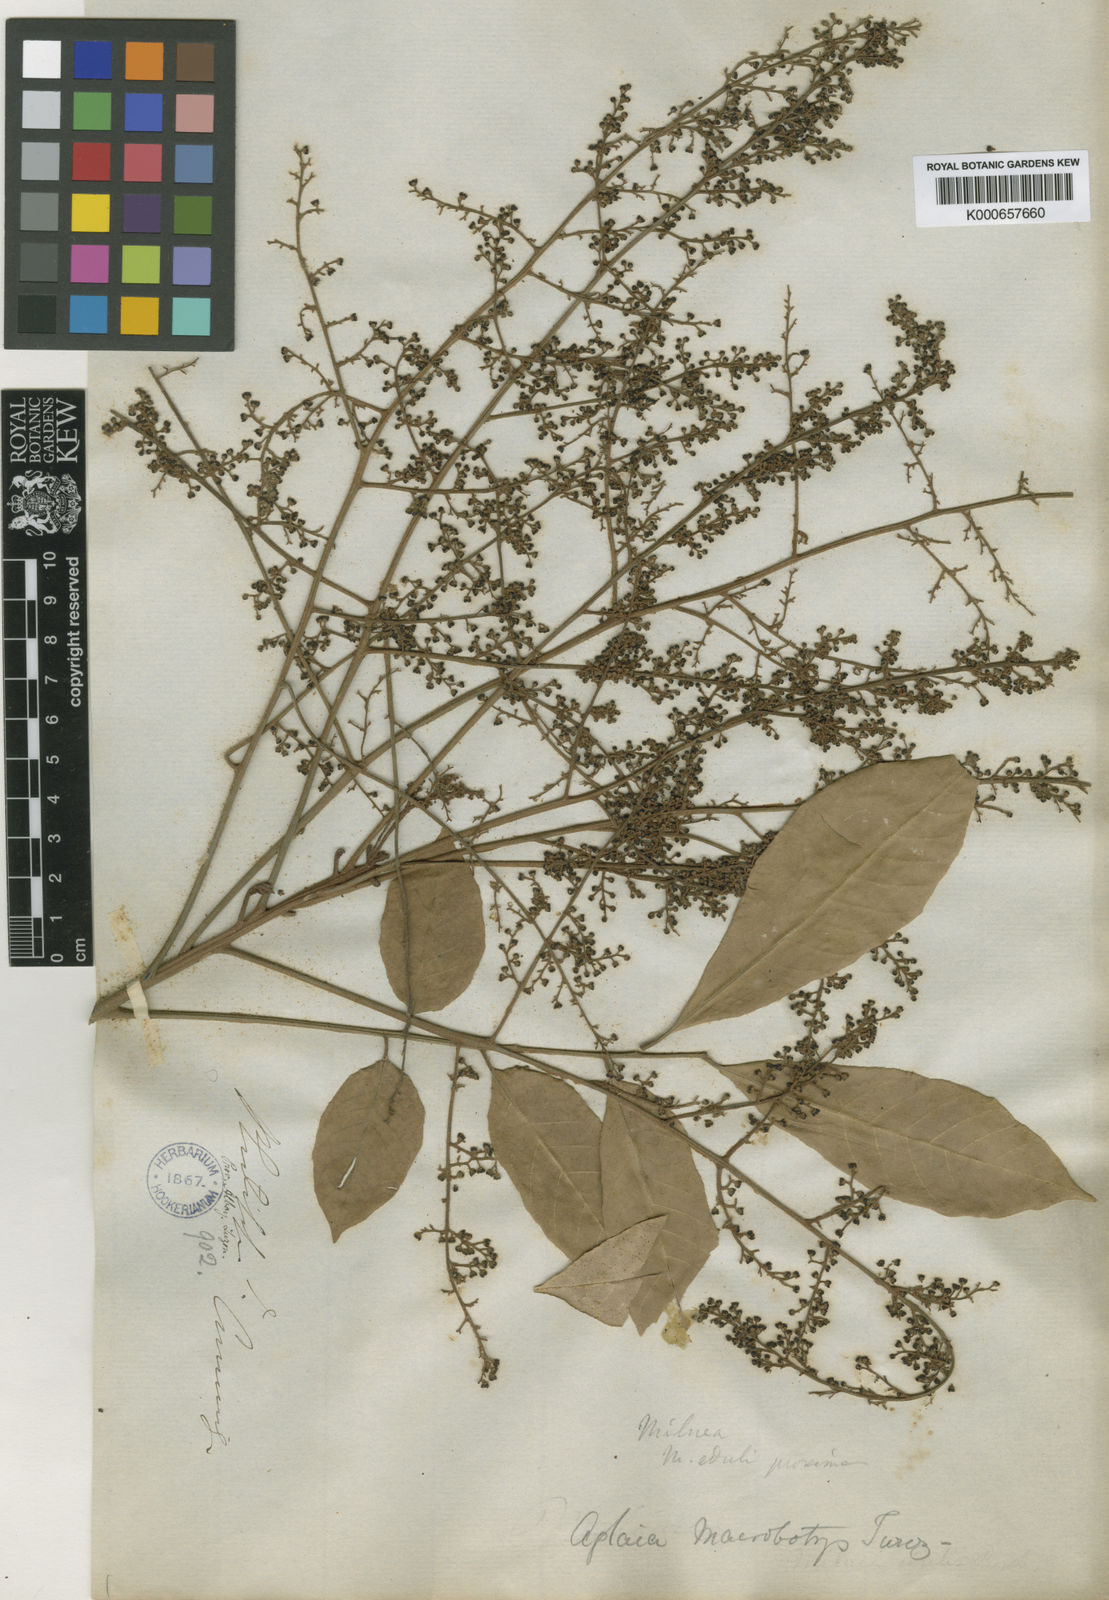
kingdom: Plantae
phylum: Tracheophyta
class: Magnoliopsida
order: Sapindales
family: Meliaceae
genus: Aglaia
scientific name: Aglaia rimosa
